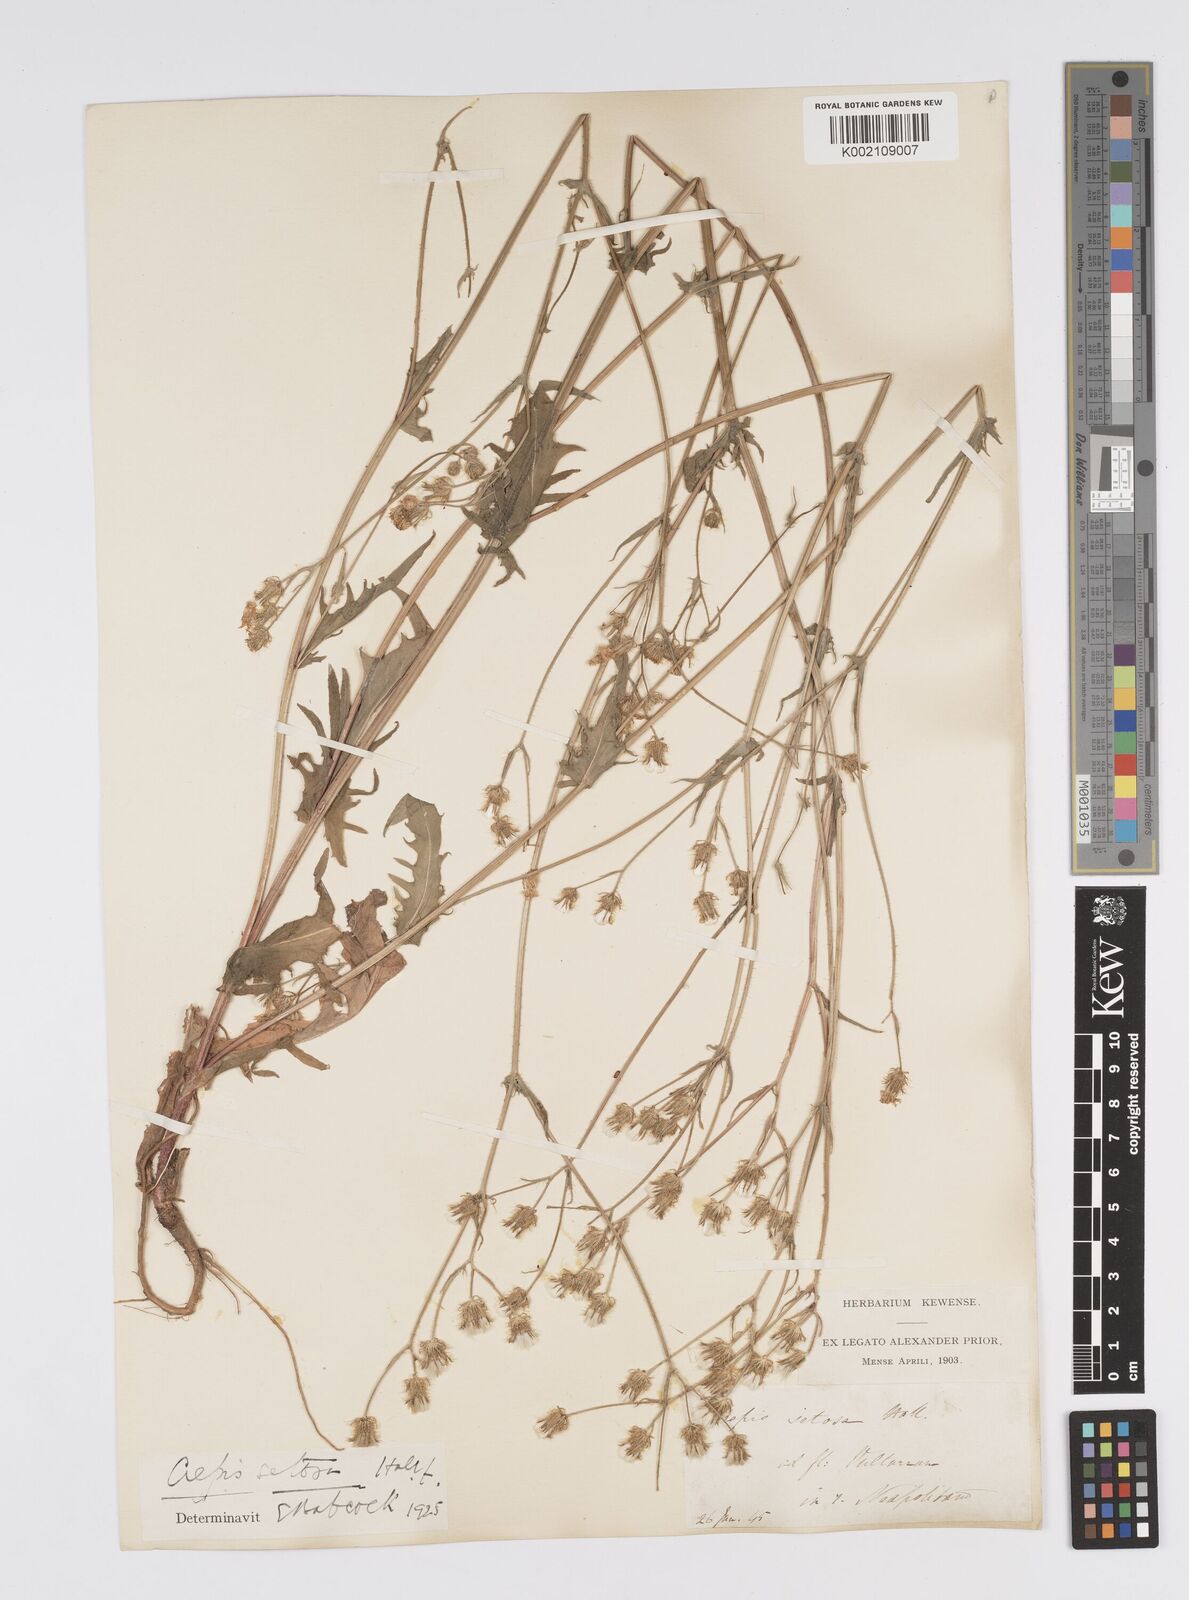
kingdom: Plantae
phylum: Tracheophyta
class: Magnoliopsida
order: Asterales
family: Asteraceae
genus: Crepis
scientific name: Crepis setosa
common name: Bristly hawk's-beard
